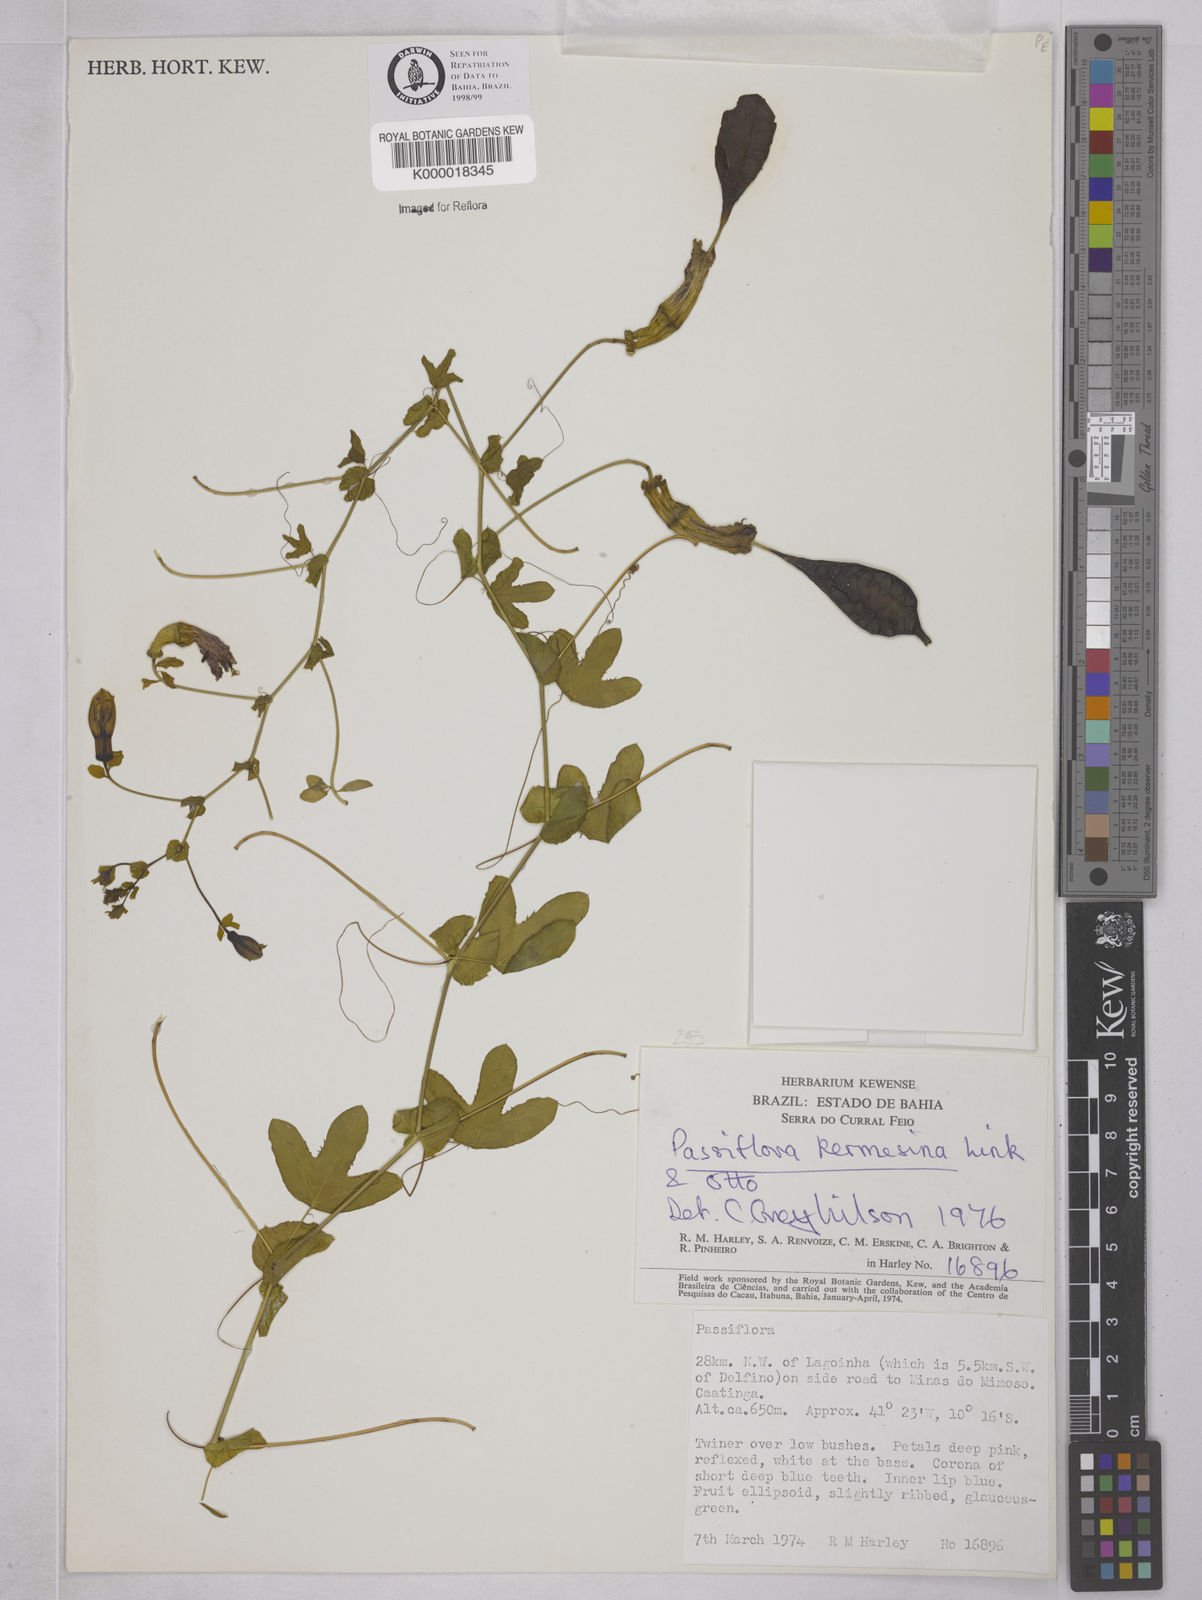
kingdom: Plantae
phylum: Tracheophyta
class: Magnoliopsida
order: Malpighiales
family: Passifloraceae
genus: Passiflora
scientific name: Passiflora kermesina
